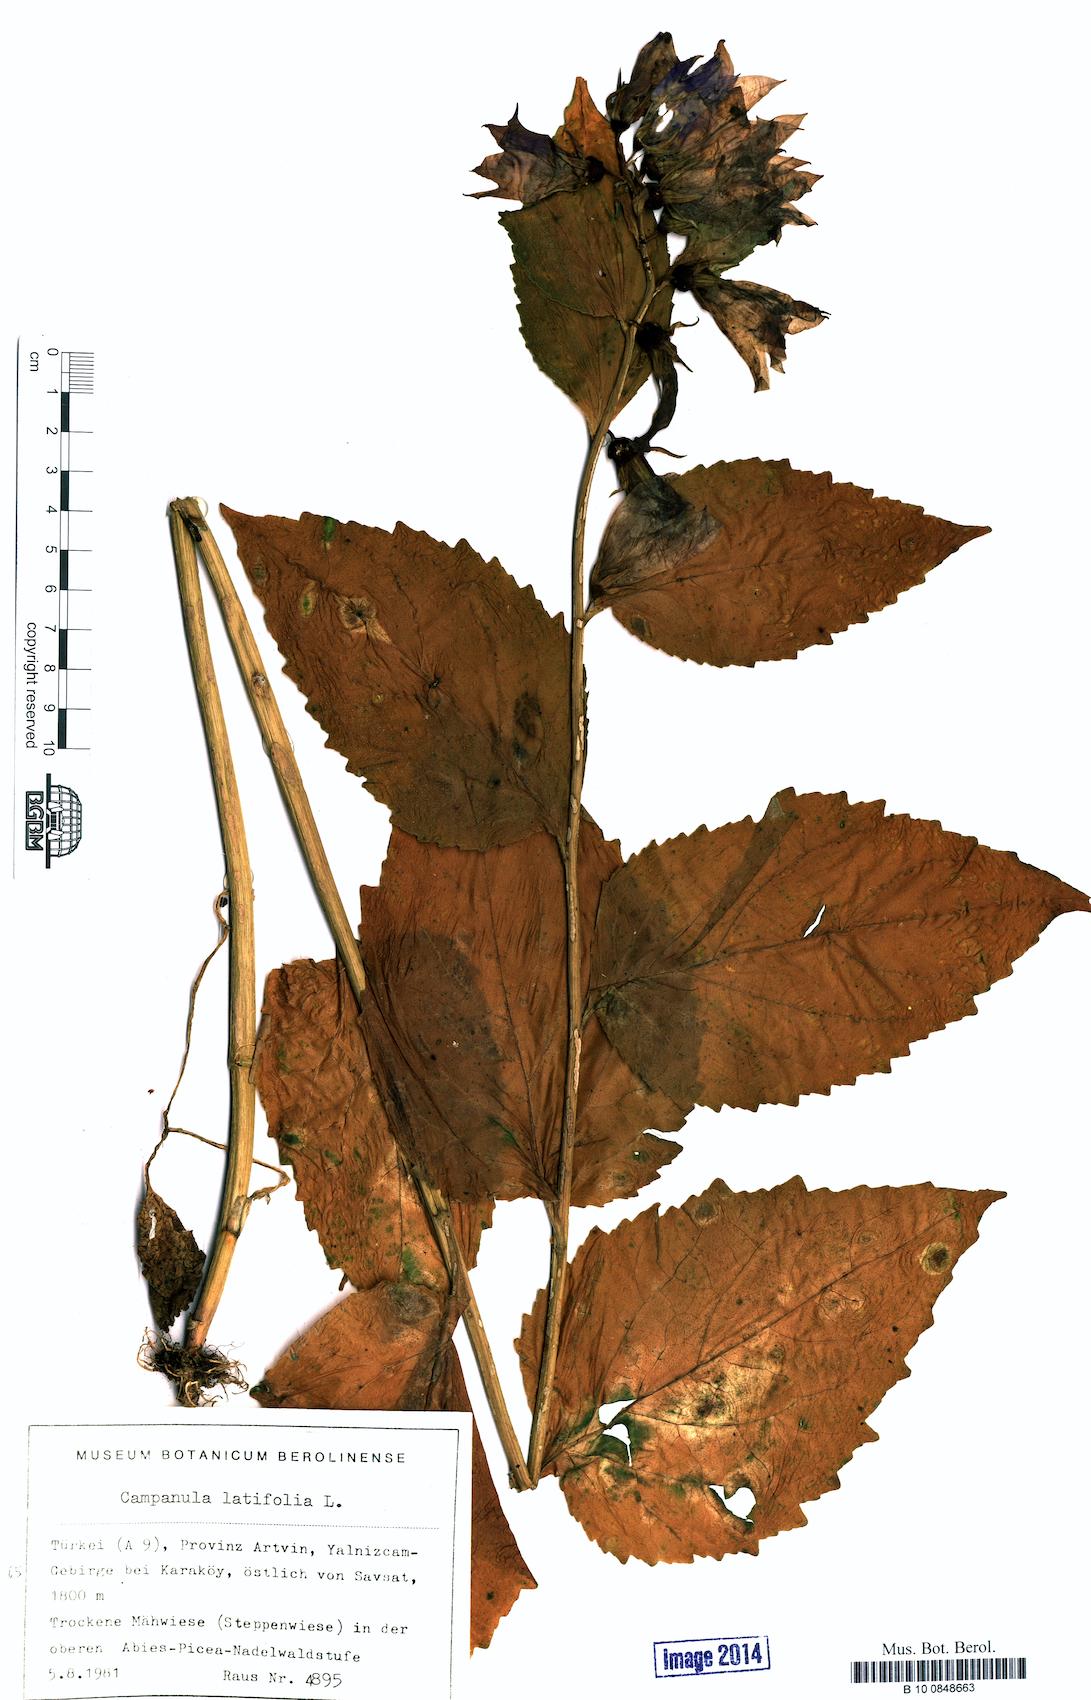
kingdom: Plantae
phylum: Tracheophyta
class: Magnoliopsida
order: Asterales
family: Campanulaceae
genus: Campanula
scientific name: Campanula latifolia
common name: Giant bellflower
